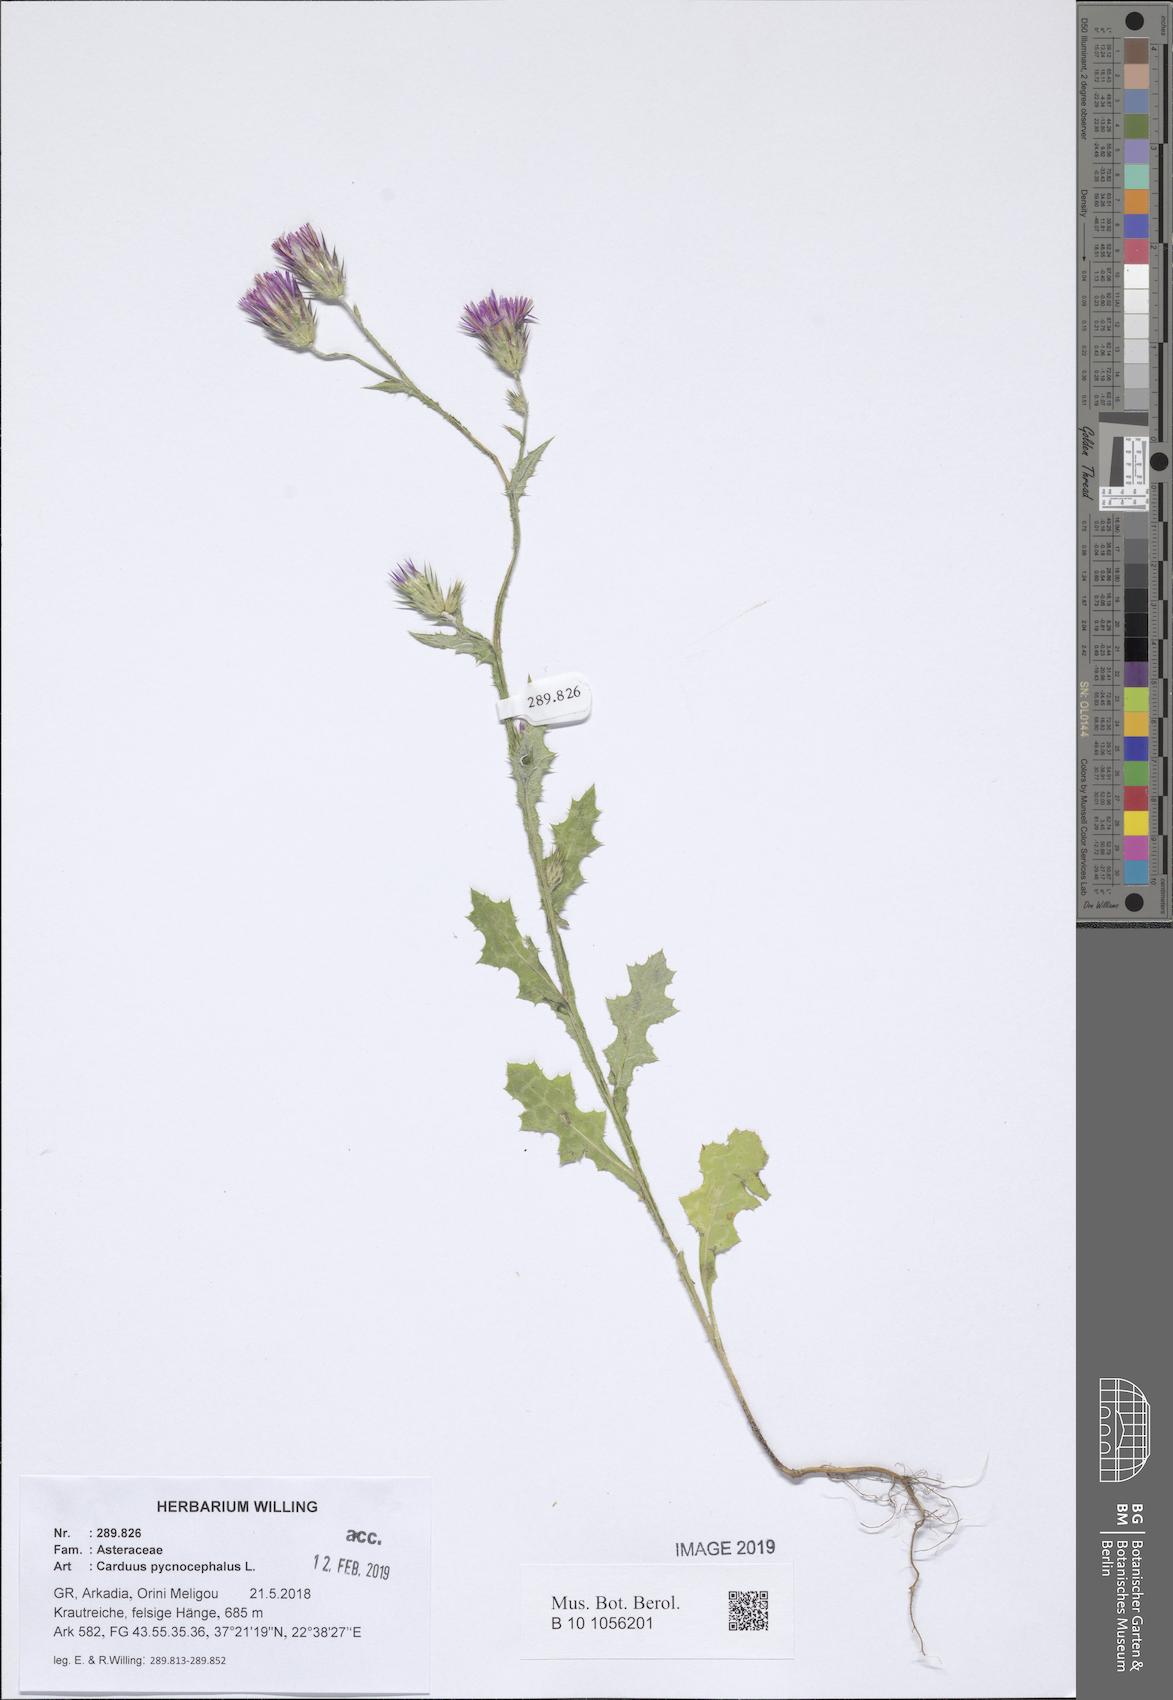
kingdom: Plantae
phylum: Tracheophyta
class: Magnoliopsida
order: Asterales
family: Asteraceae
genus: Carduus
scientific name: Carduus pycnocephalus
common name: Plymouth thistle
